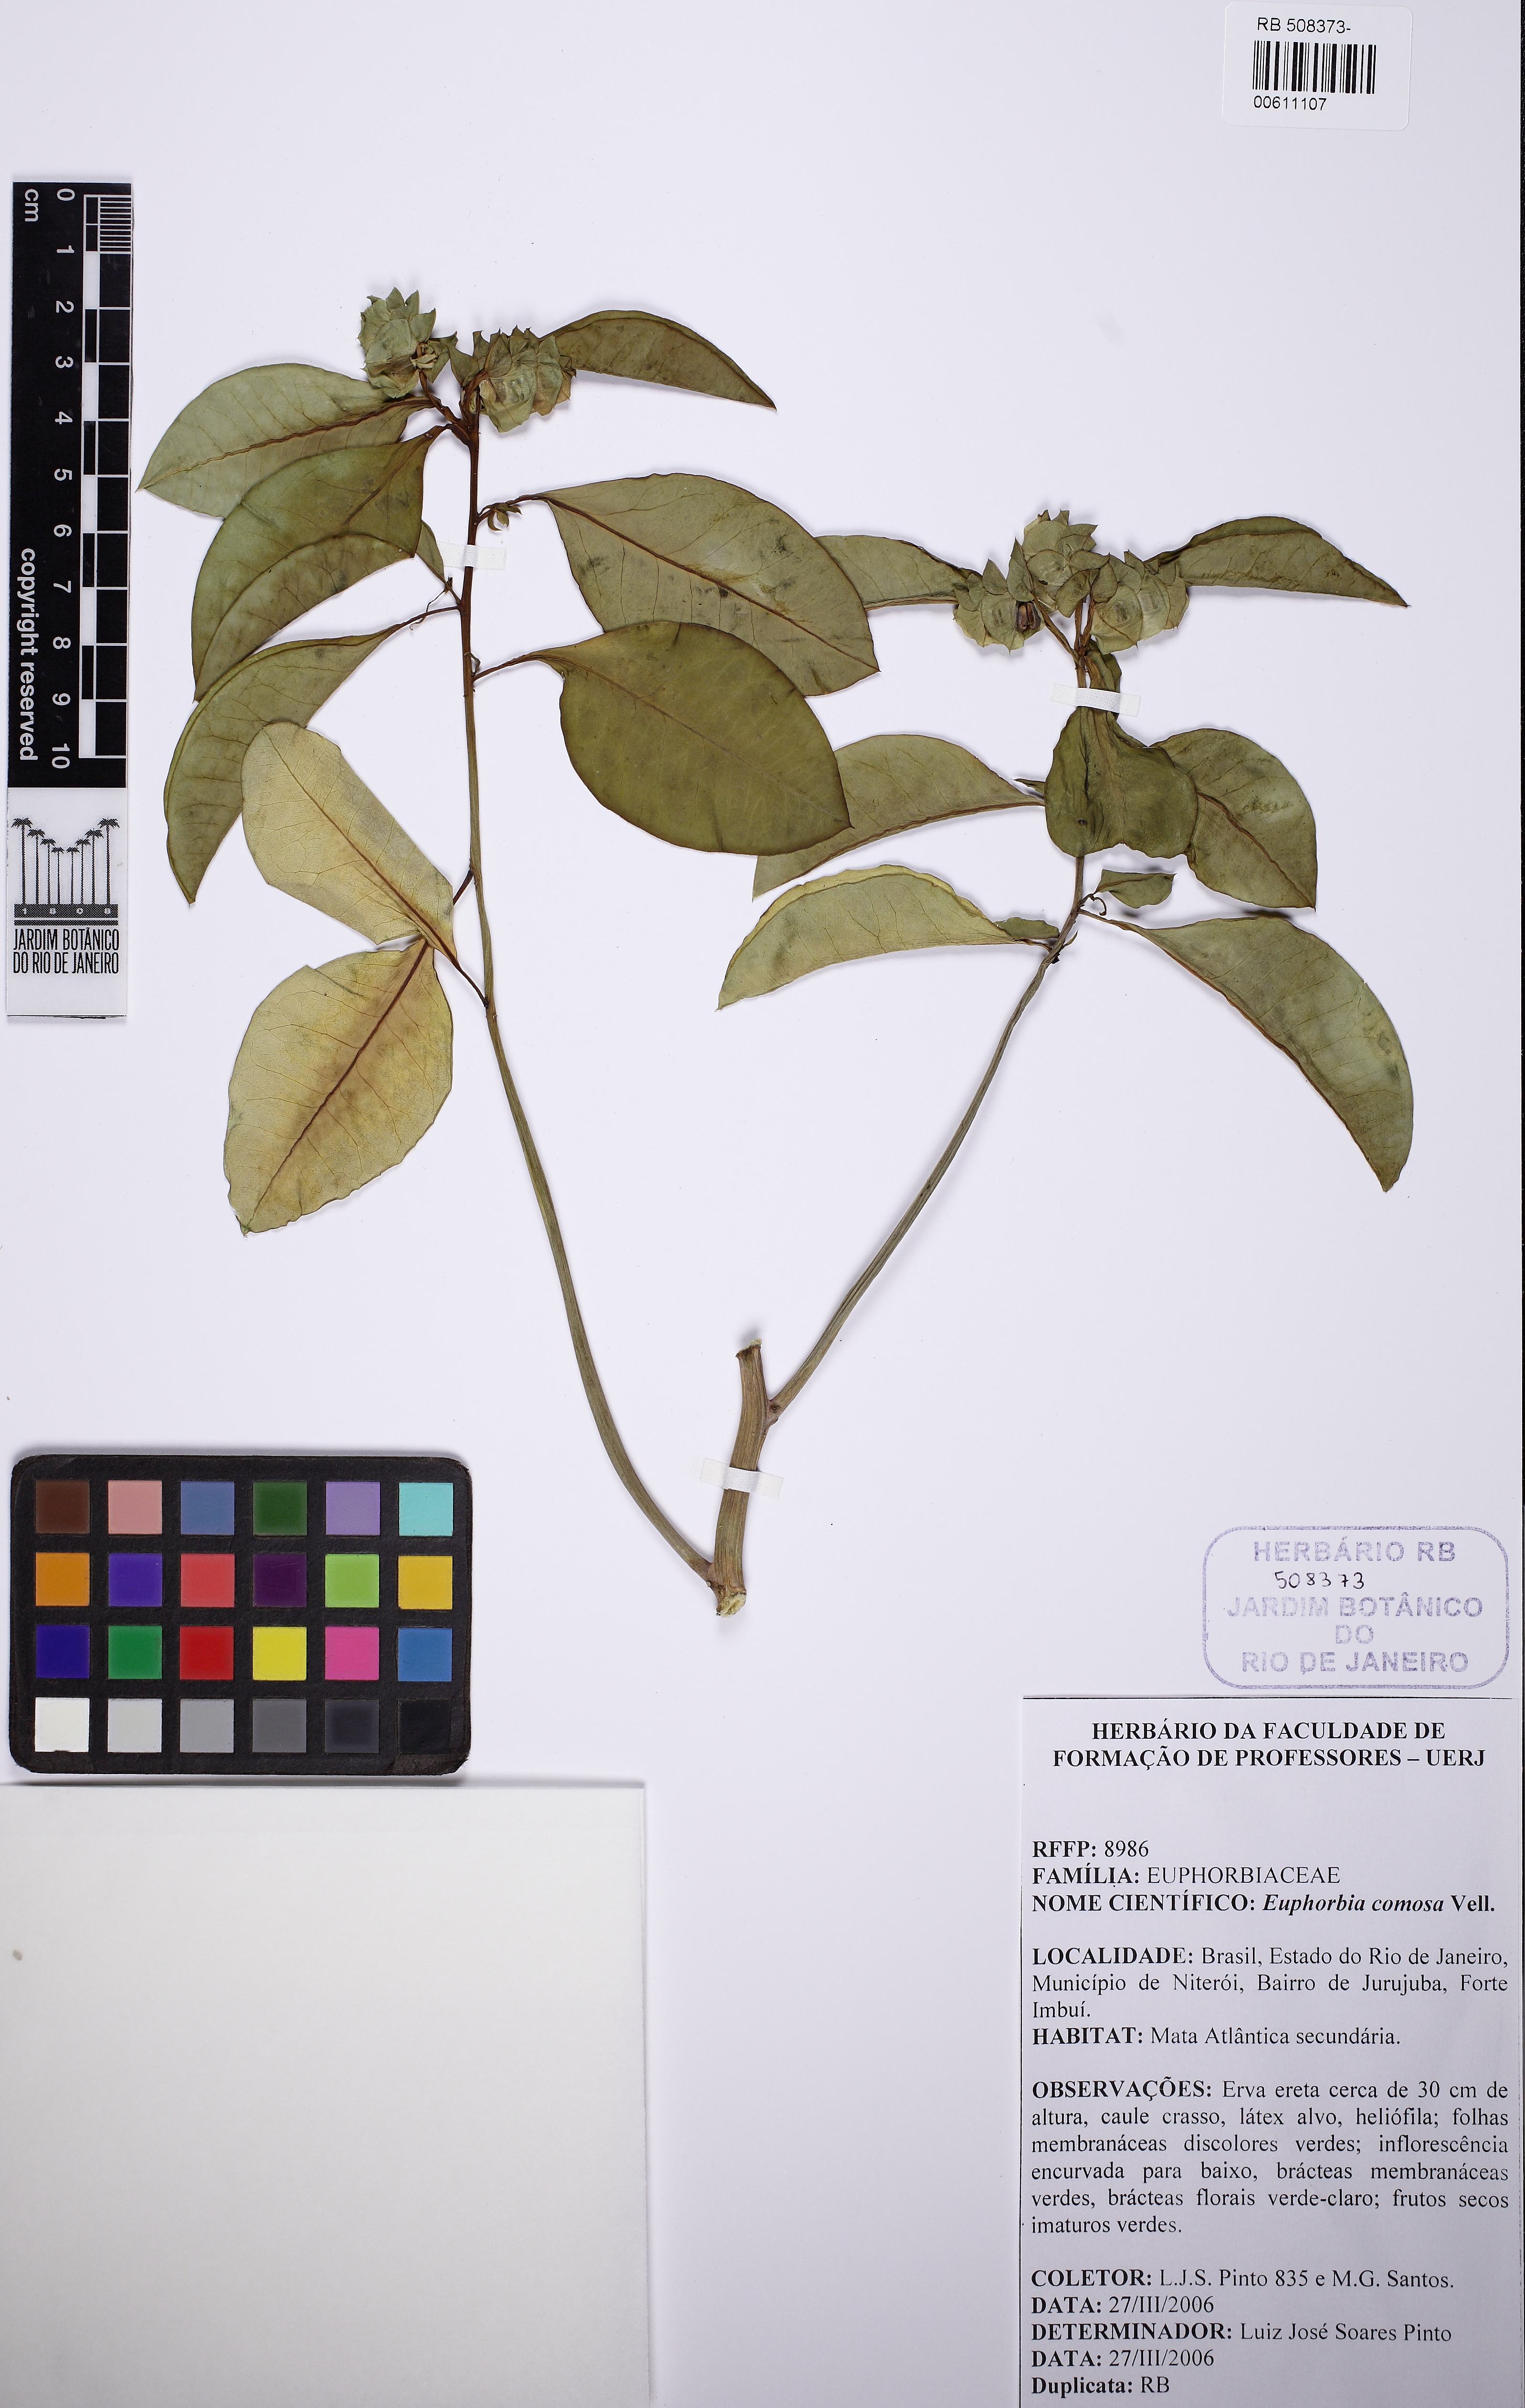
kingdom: Plantae
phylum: Tracheophyta
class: Magnoliopsida
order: Malpighiales
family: Euphorbiaceae
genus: Euphorbia
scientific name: Euphorbia comosa
